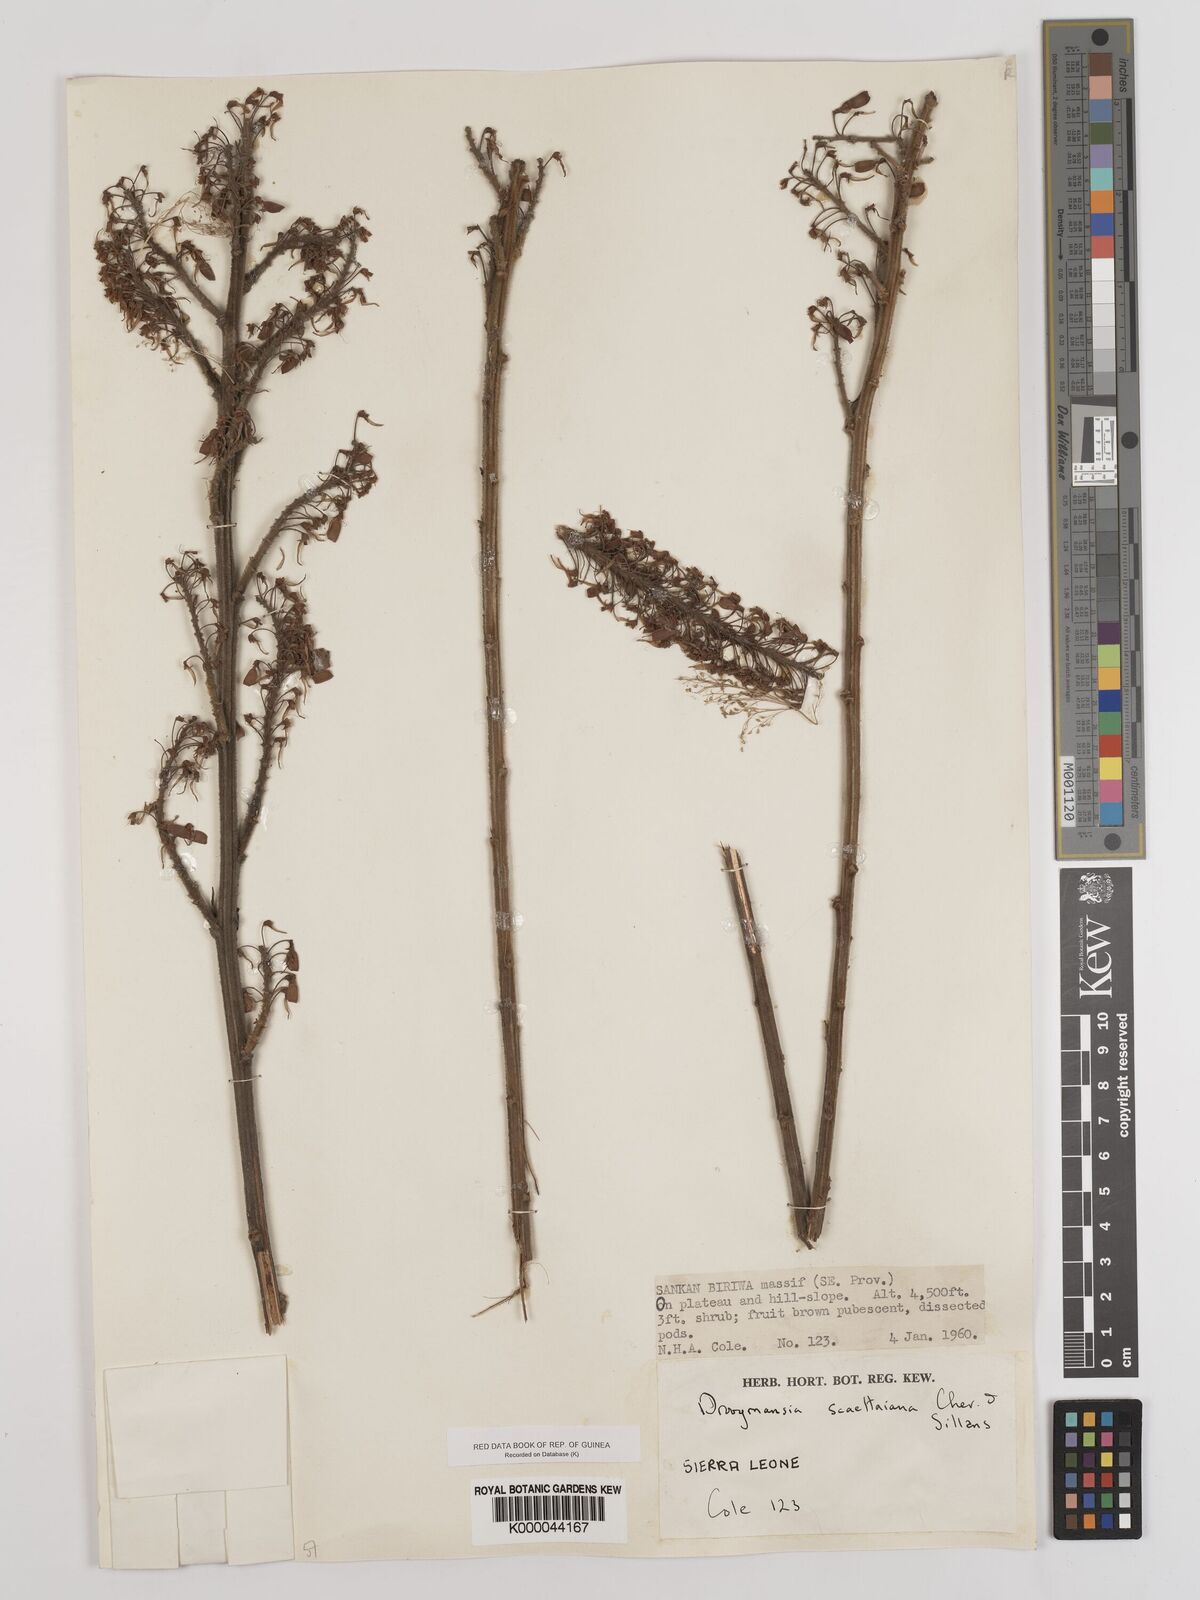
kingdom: Plantae
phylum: Tracheophyta
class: Magnoliopsida
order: Fabales
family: Fabaceae
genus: Droogmansia
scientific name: Droogmansia scaettaiana
